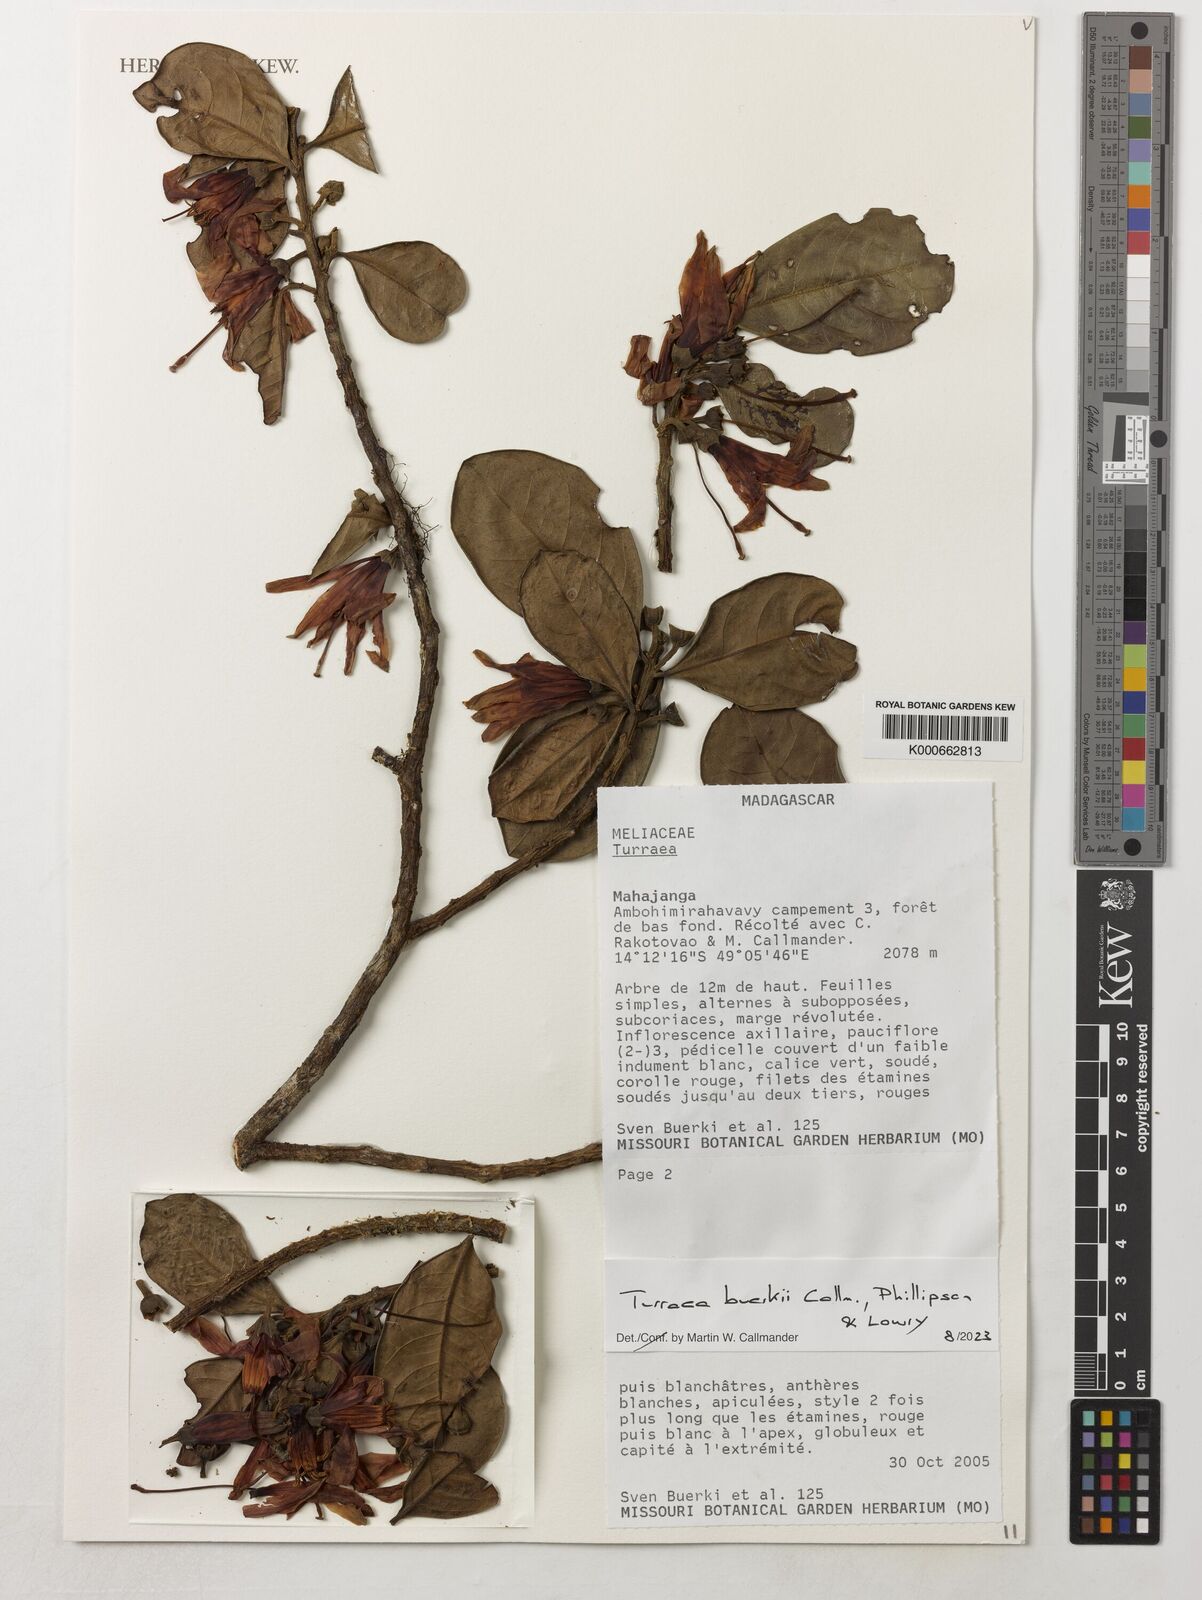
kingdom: Plantae
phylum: Tracheophyta
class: Magnoliopsida
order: Sapindales
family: Meliaceae
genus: Turraea
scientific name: Turraea buerkii
